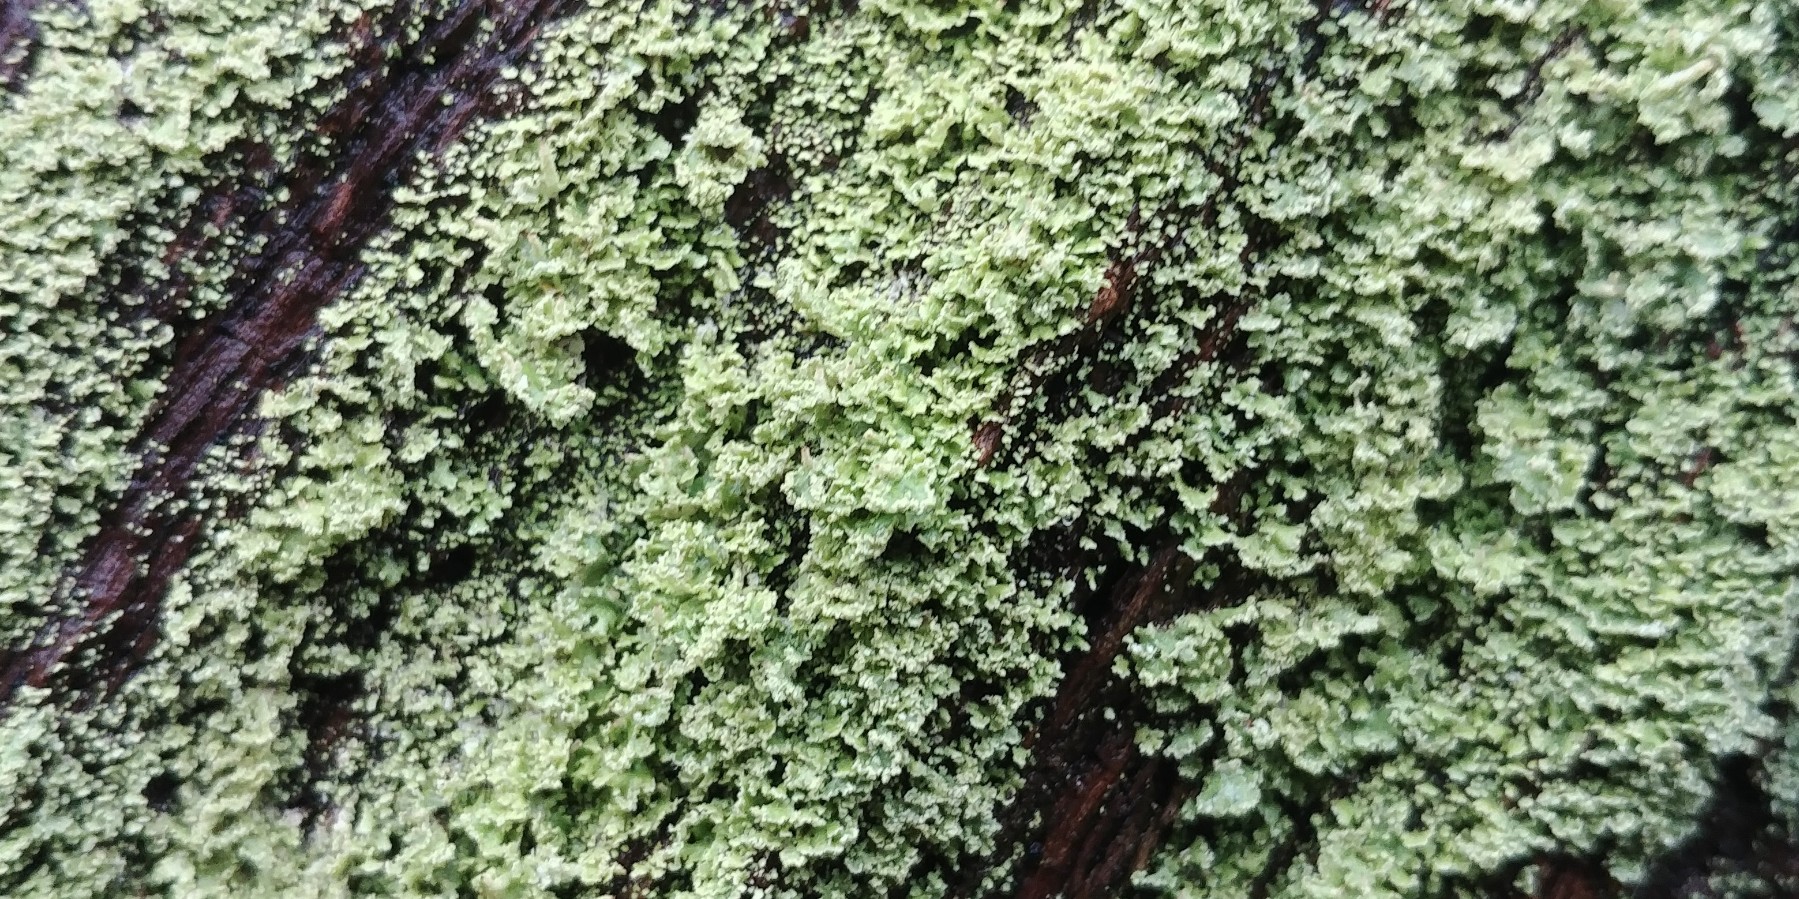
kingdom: Fungi
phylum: Ascomycota
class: Lecanoromycetes
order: Lecanorales
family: Cladoniaceae
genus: Cladonia
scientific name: Cladonia
